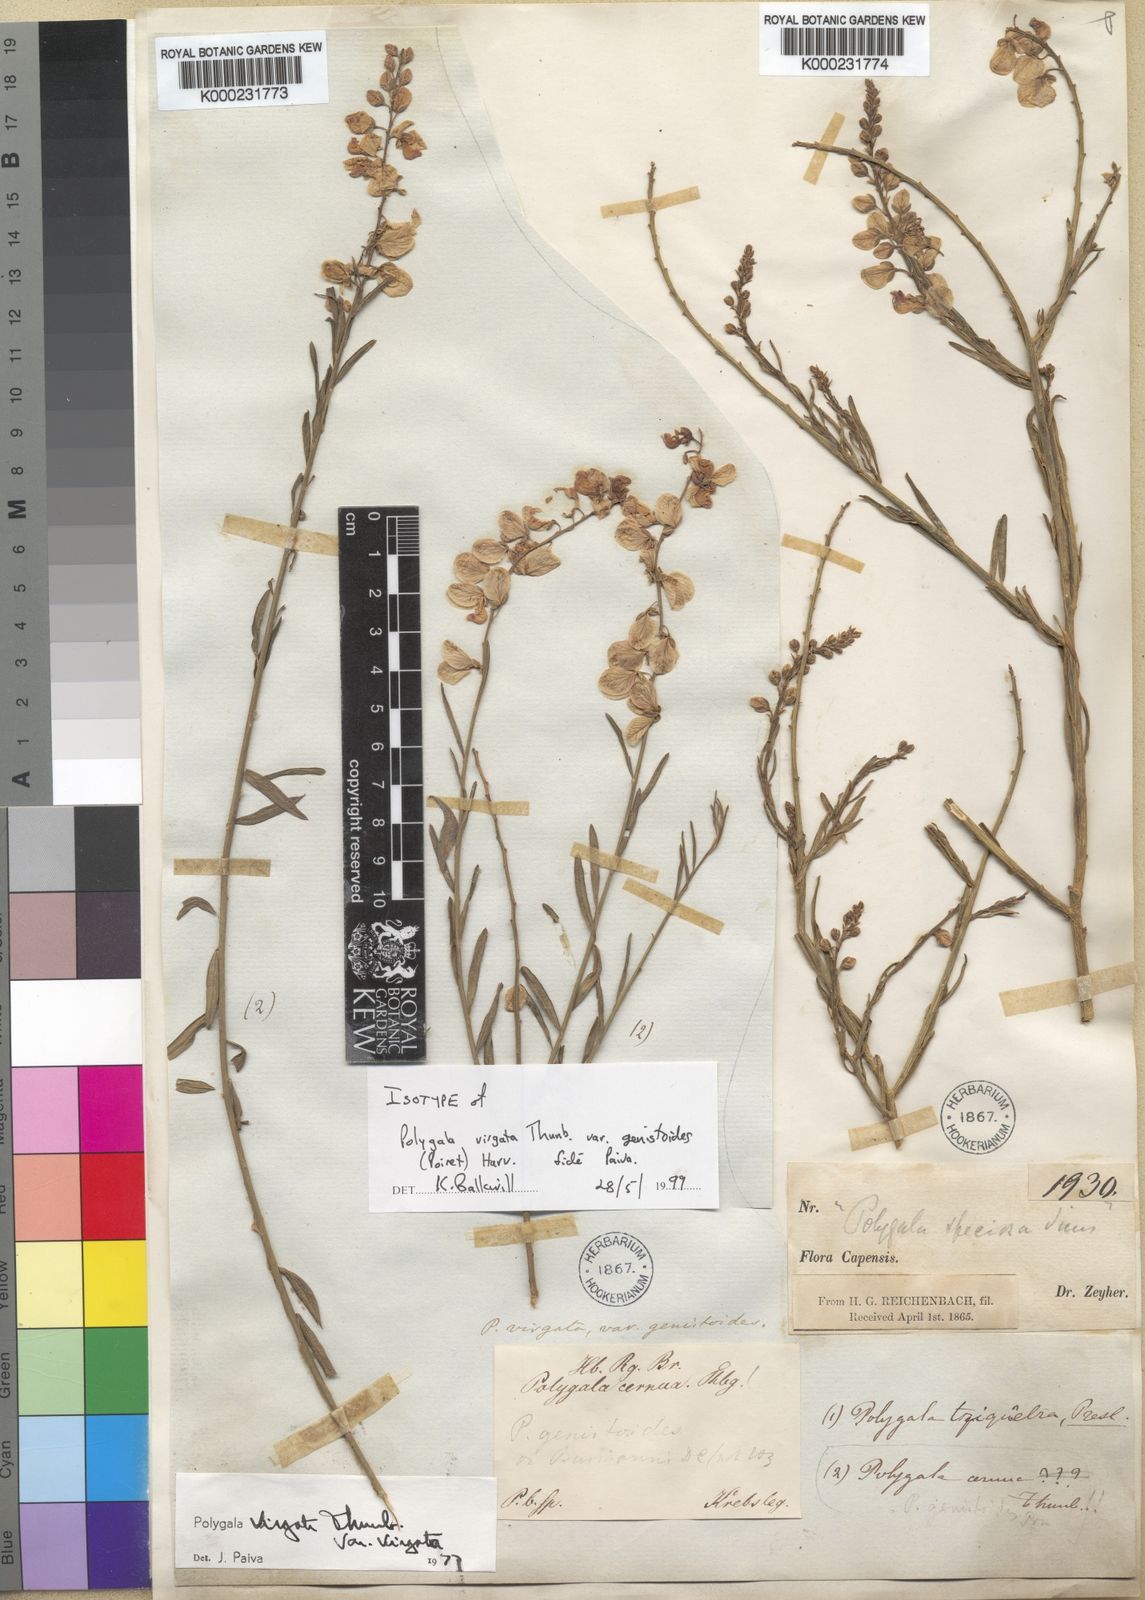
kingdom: Plantae
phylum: Tracheophyta
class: Magnoliopsida
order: Fabales
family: Polygalaceae
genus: Polygala
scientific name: Polygala virgata
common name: Milkwort
